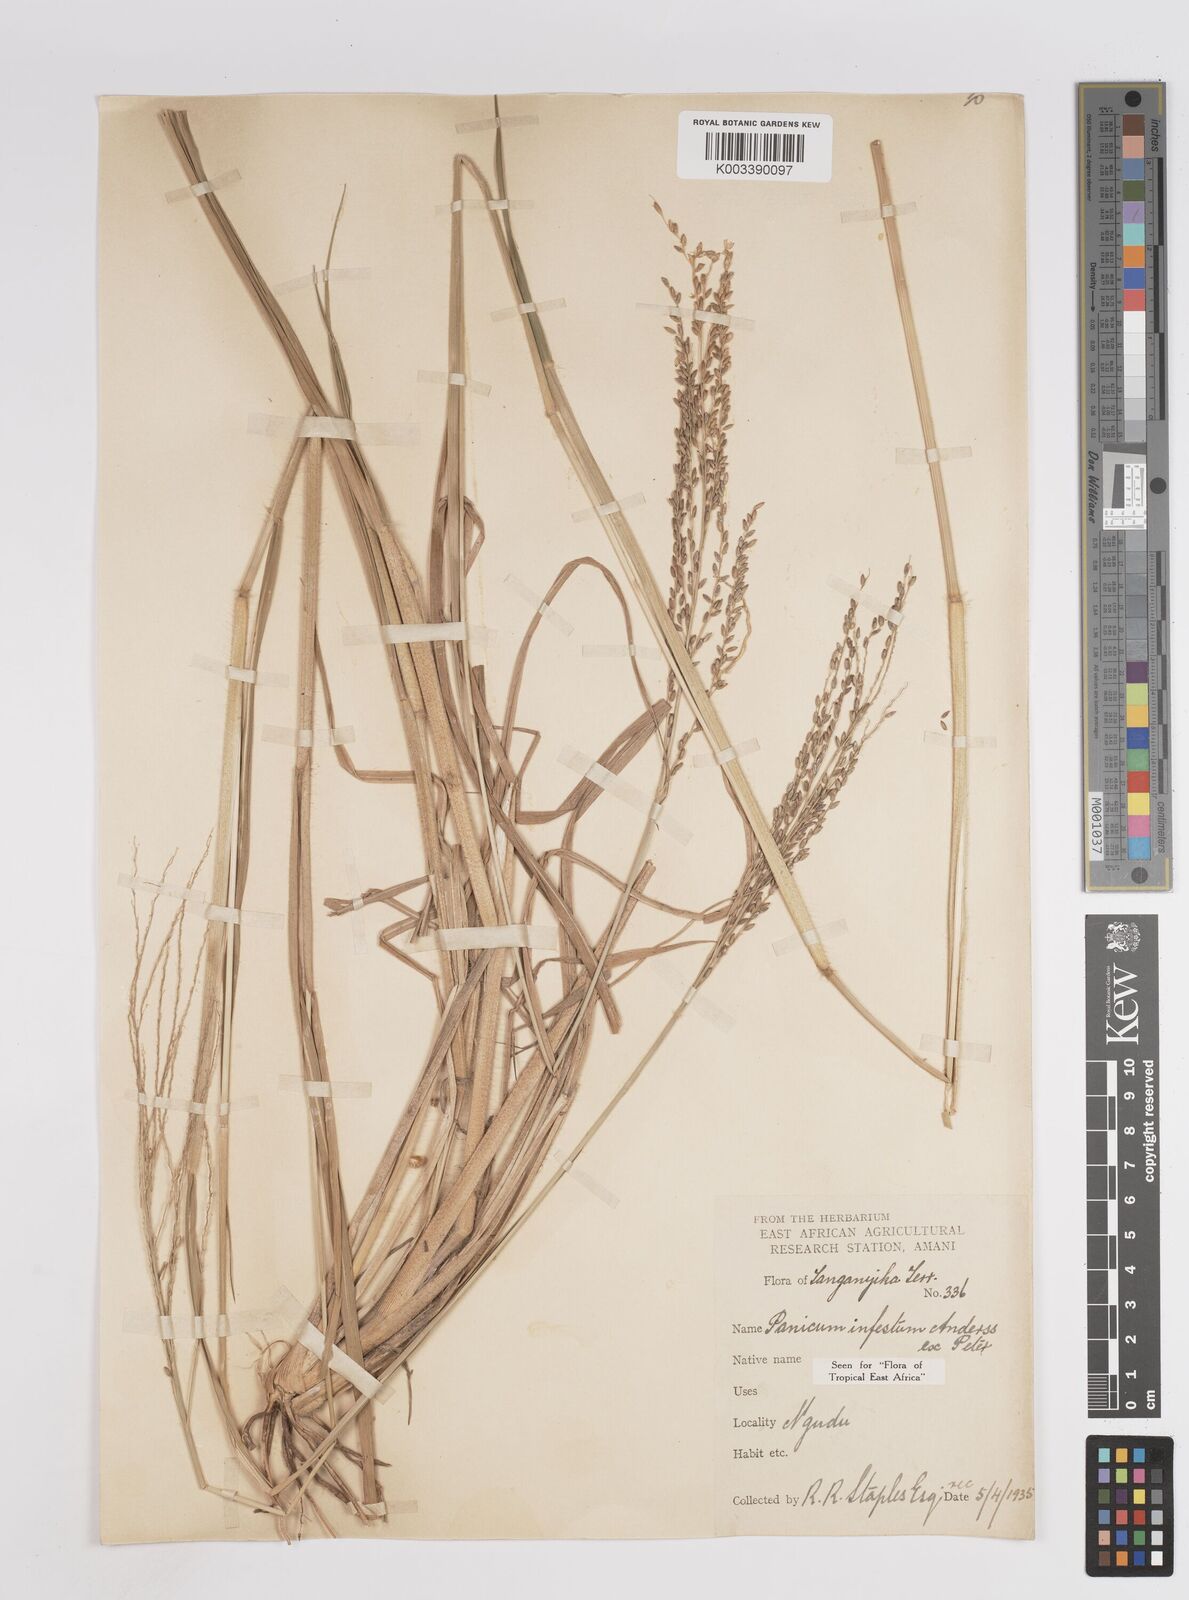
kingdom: Plantae
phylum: Tracheophyta
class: Liliopsida
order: Poales
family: Poaceae
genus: Megathyrsus
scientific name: Megathyrsus infestus
